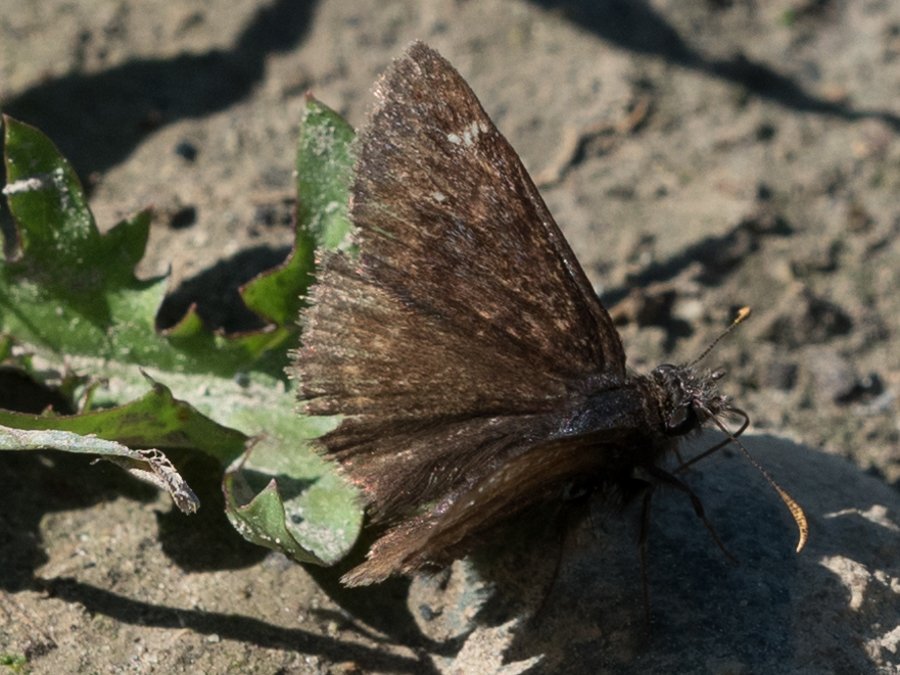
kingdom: Animalia
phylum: Arthropoda
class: Insecta
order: Lepidoptera
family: Hesperiidae
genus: Gesta
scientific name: Gesta
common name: Persius Duskywing
